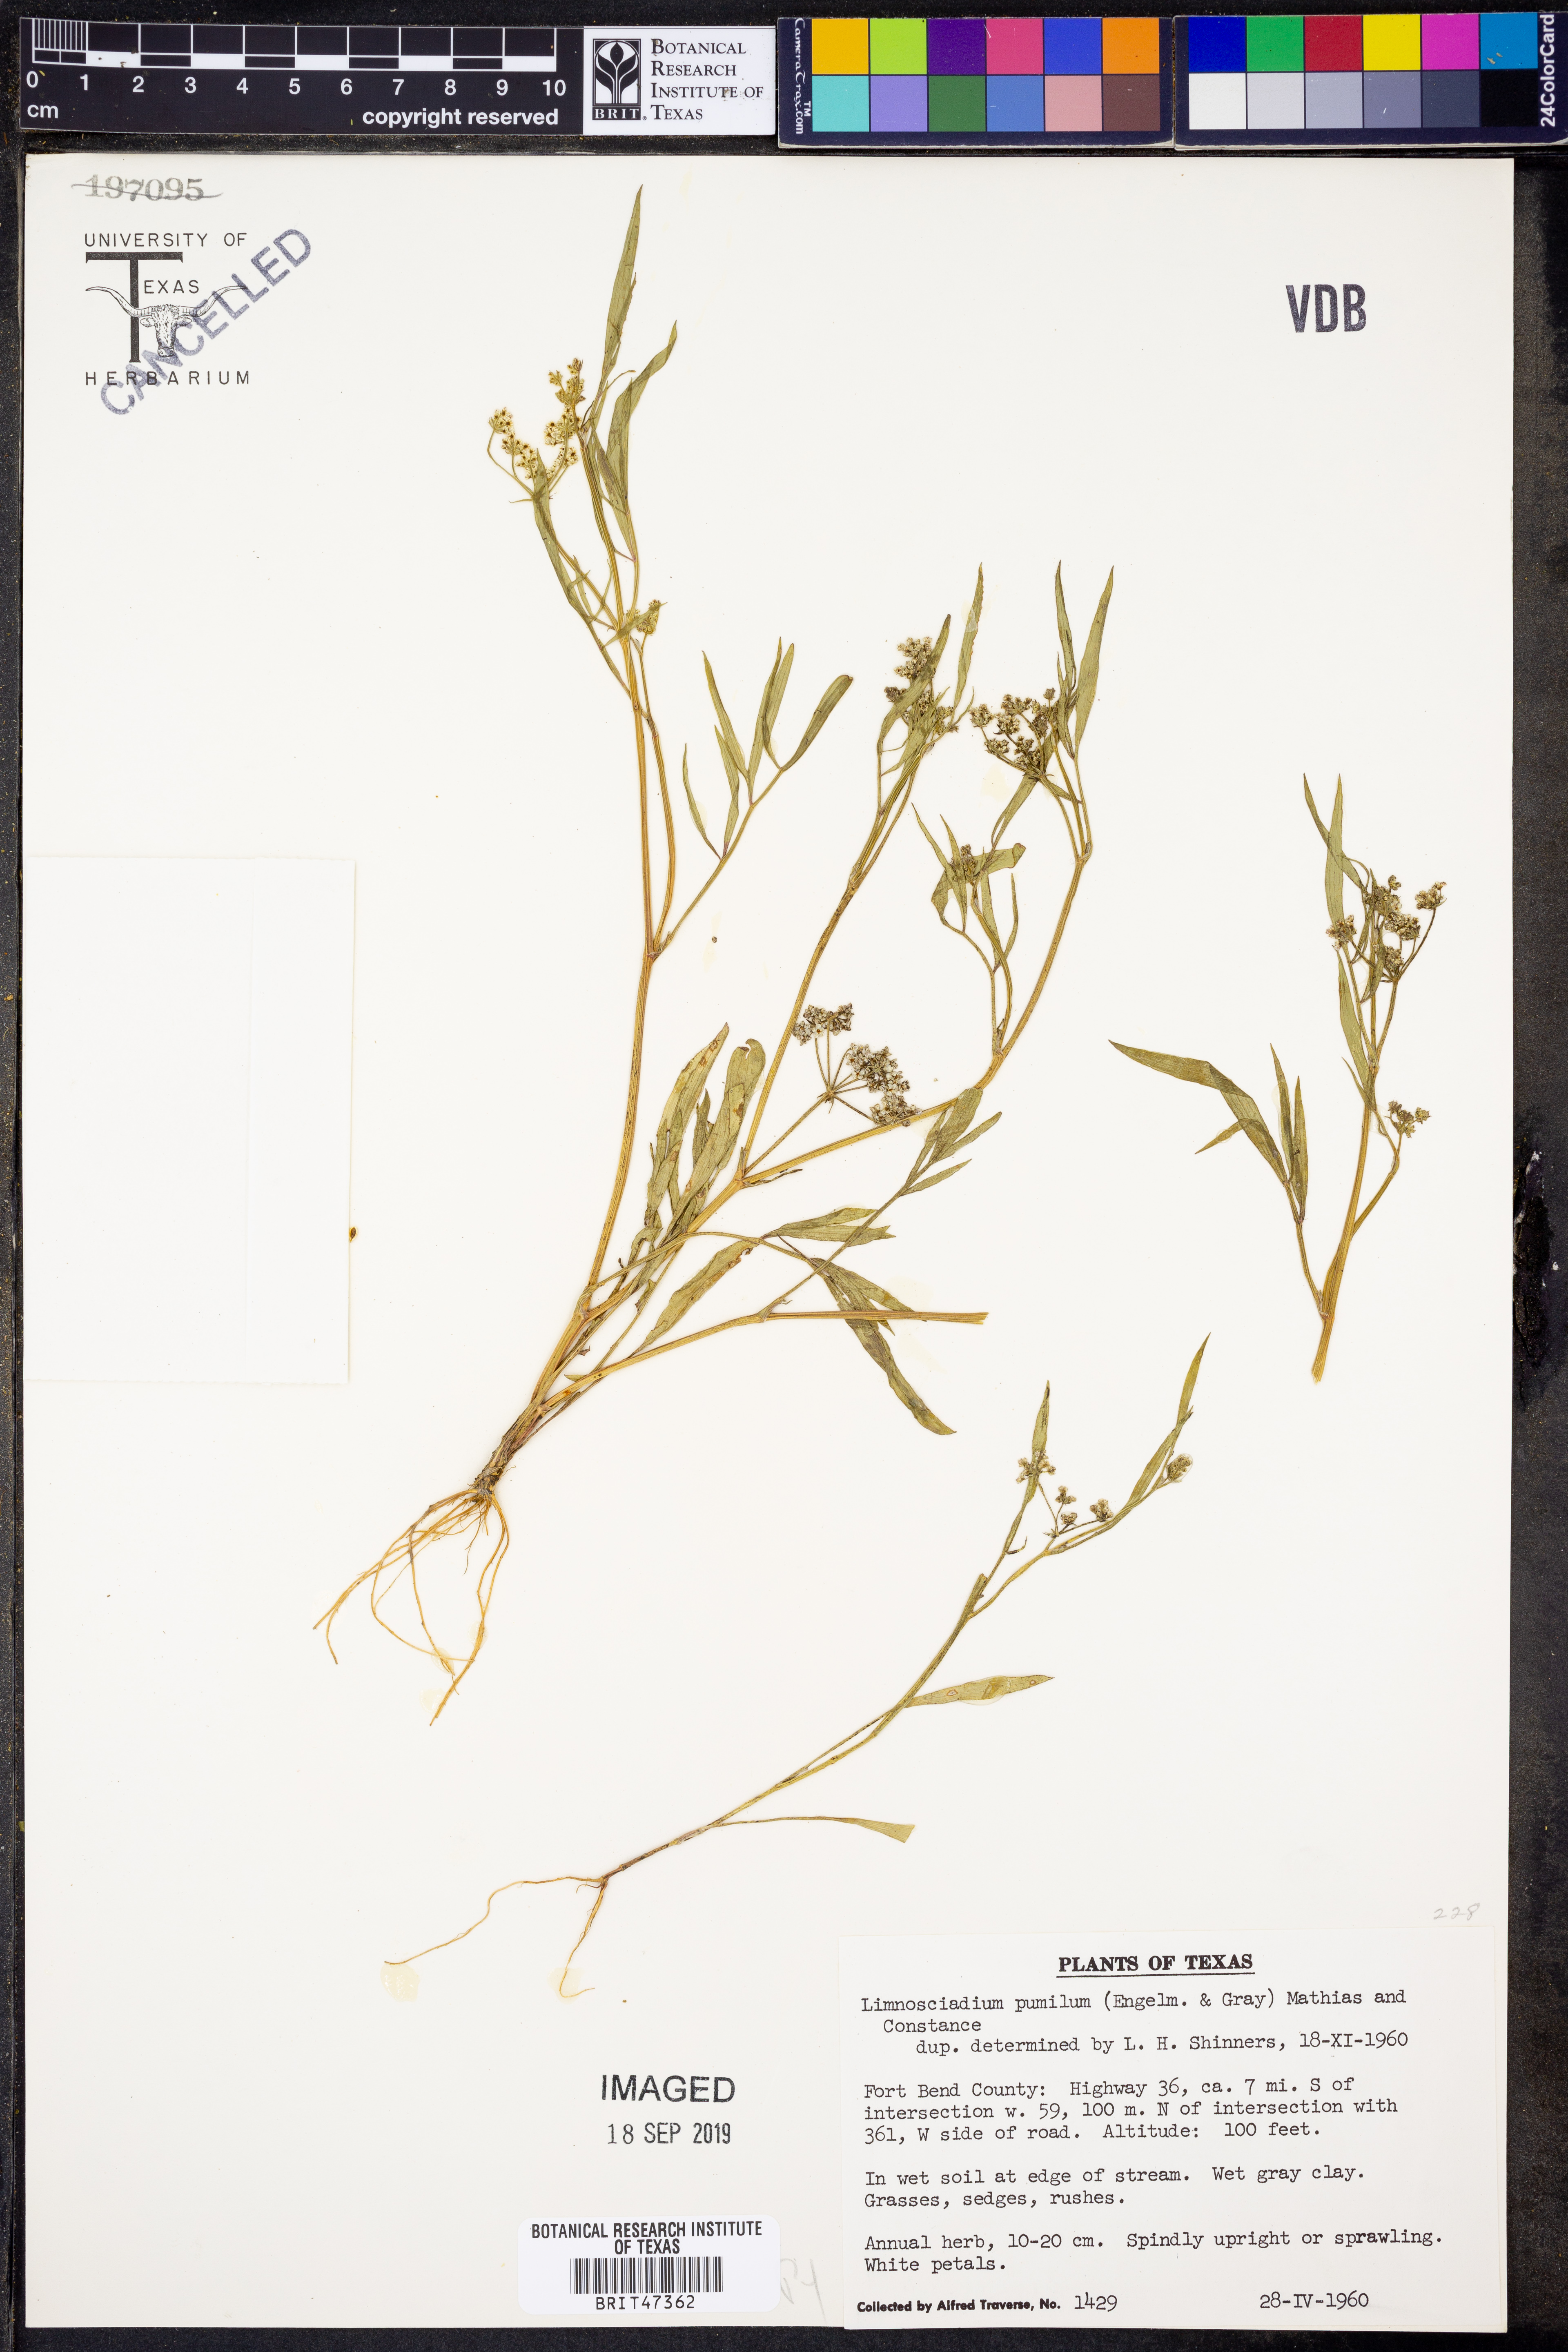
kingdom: Plantae
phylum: Tracheophyta
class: Magnoliopsida
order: Apiales
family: Apiaceae
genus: Limnosciadium
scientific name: Limnosciadium pinnatum
